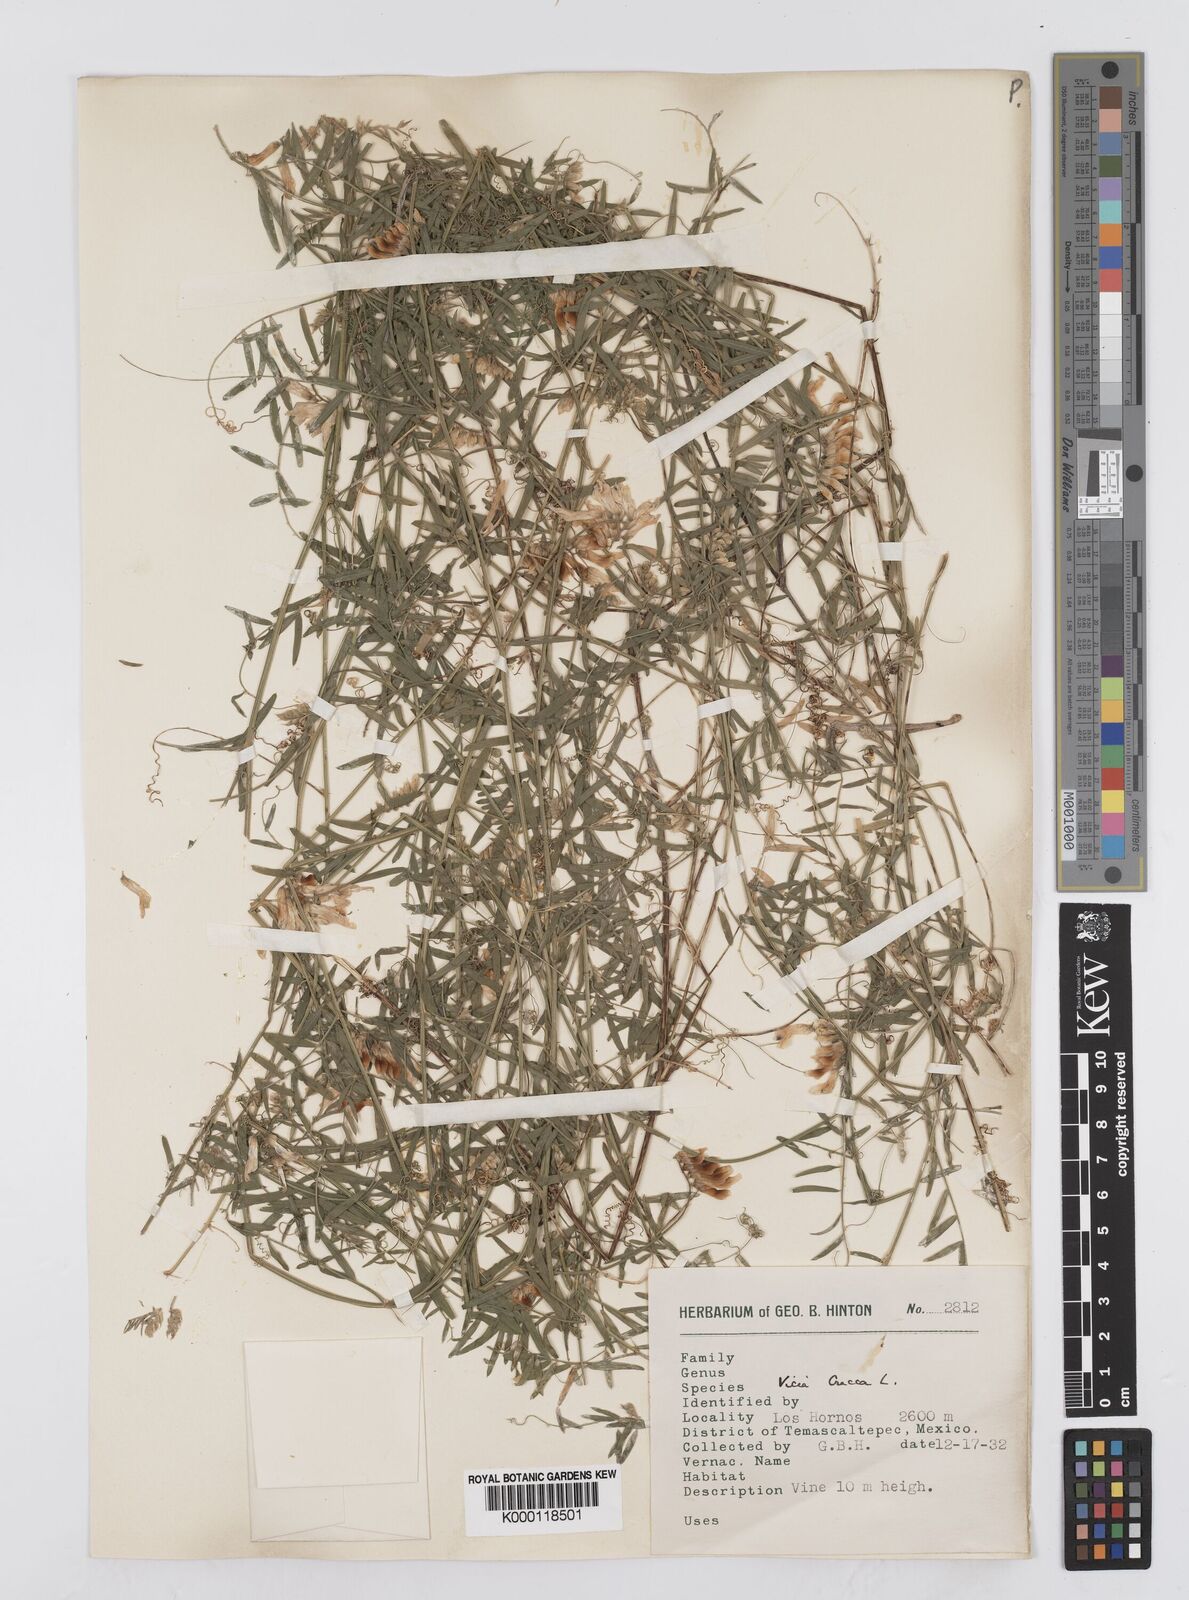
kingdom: Plantae
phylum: Tracheophyta
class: Magnoliopsida
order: Fabales
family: Fabaceae
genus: Vicia
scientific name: Vicia cracca
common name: Bird vetch
